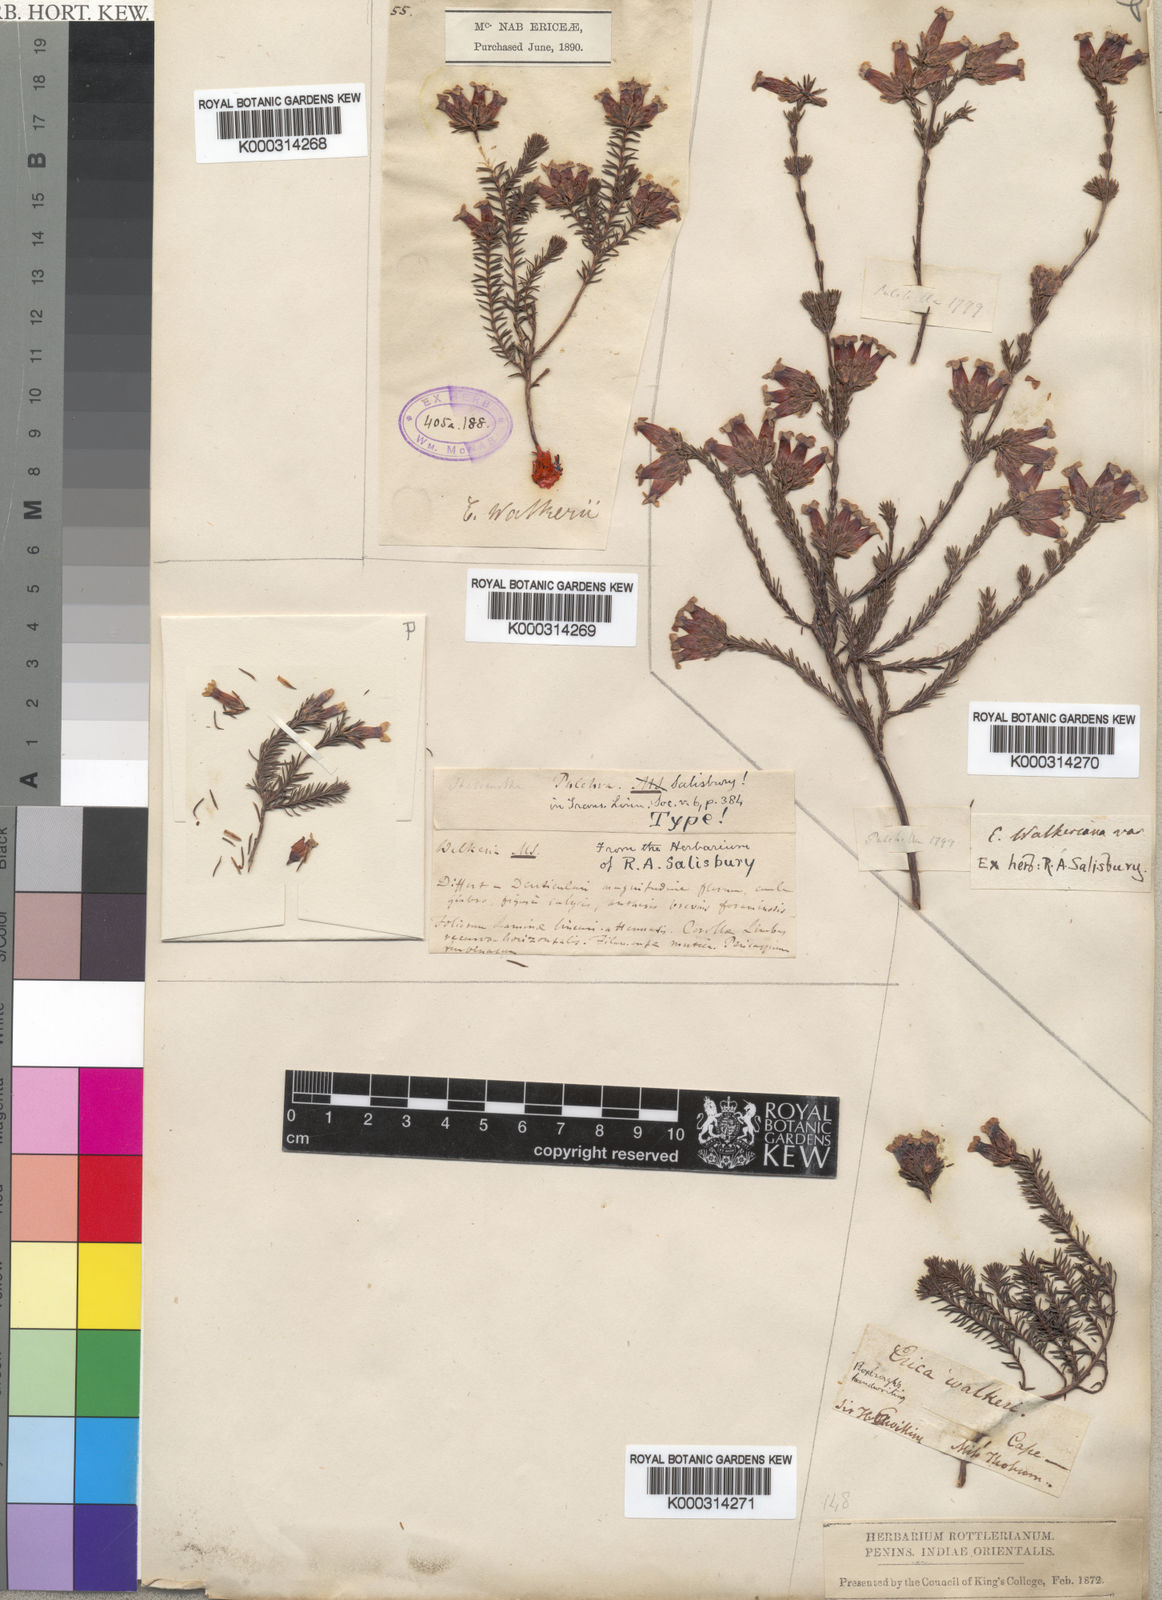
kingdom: Plantae
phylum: Tracheophyta
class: Magnoliopsida
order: Ericales
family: Ericaceae
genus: Erica
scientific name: Erica walkeria
